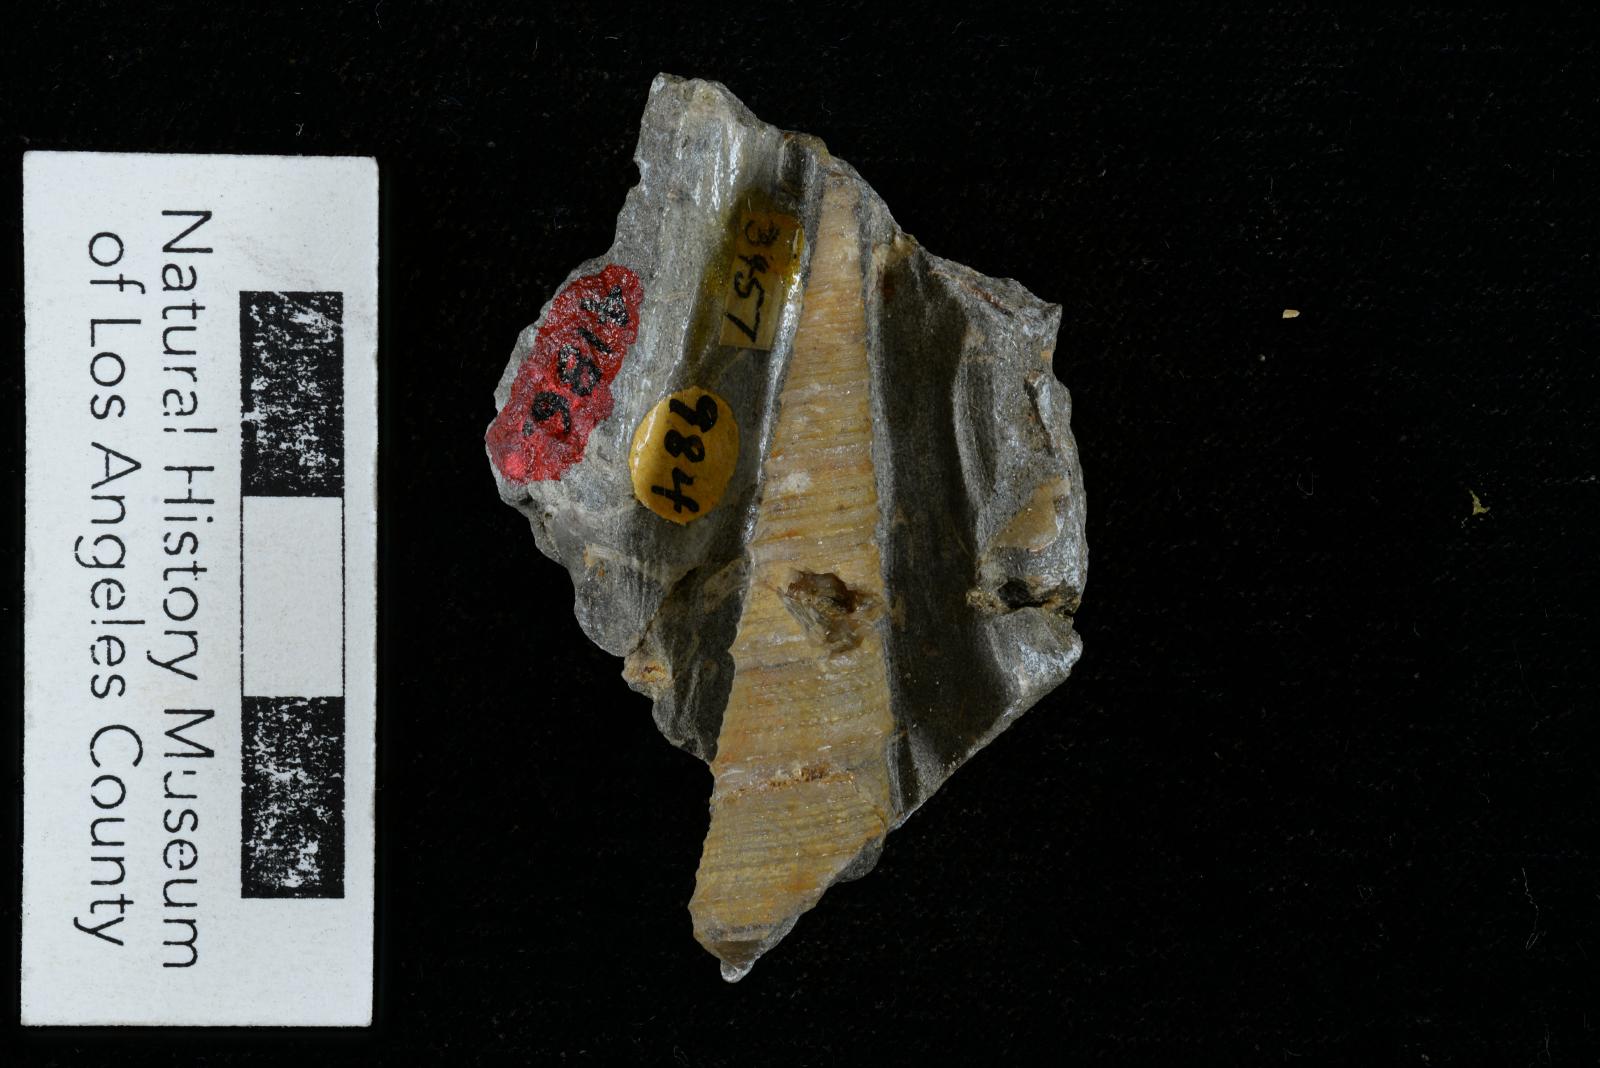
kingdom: Animalia
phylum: Mollusca
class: Gastropoda
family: Turritellidae
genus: Turritella
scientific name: Turritella iota
